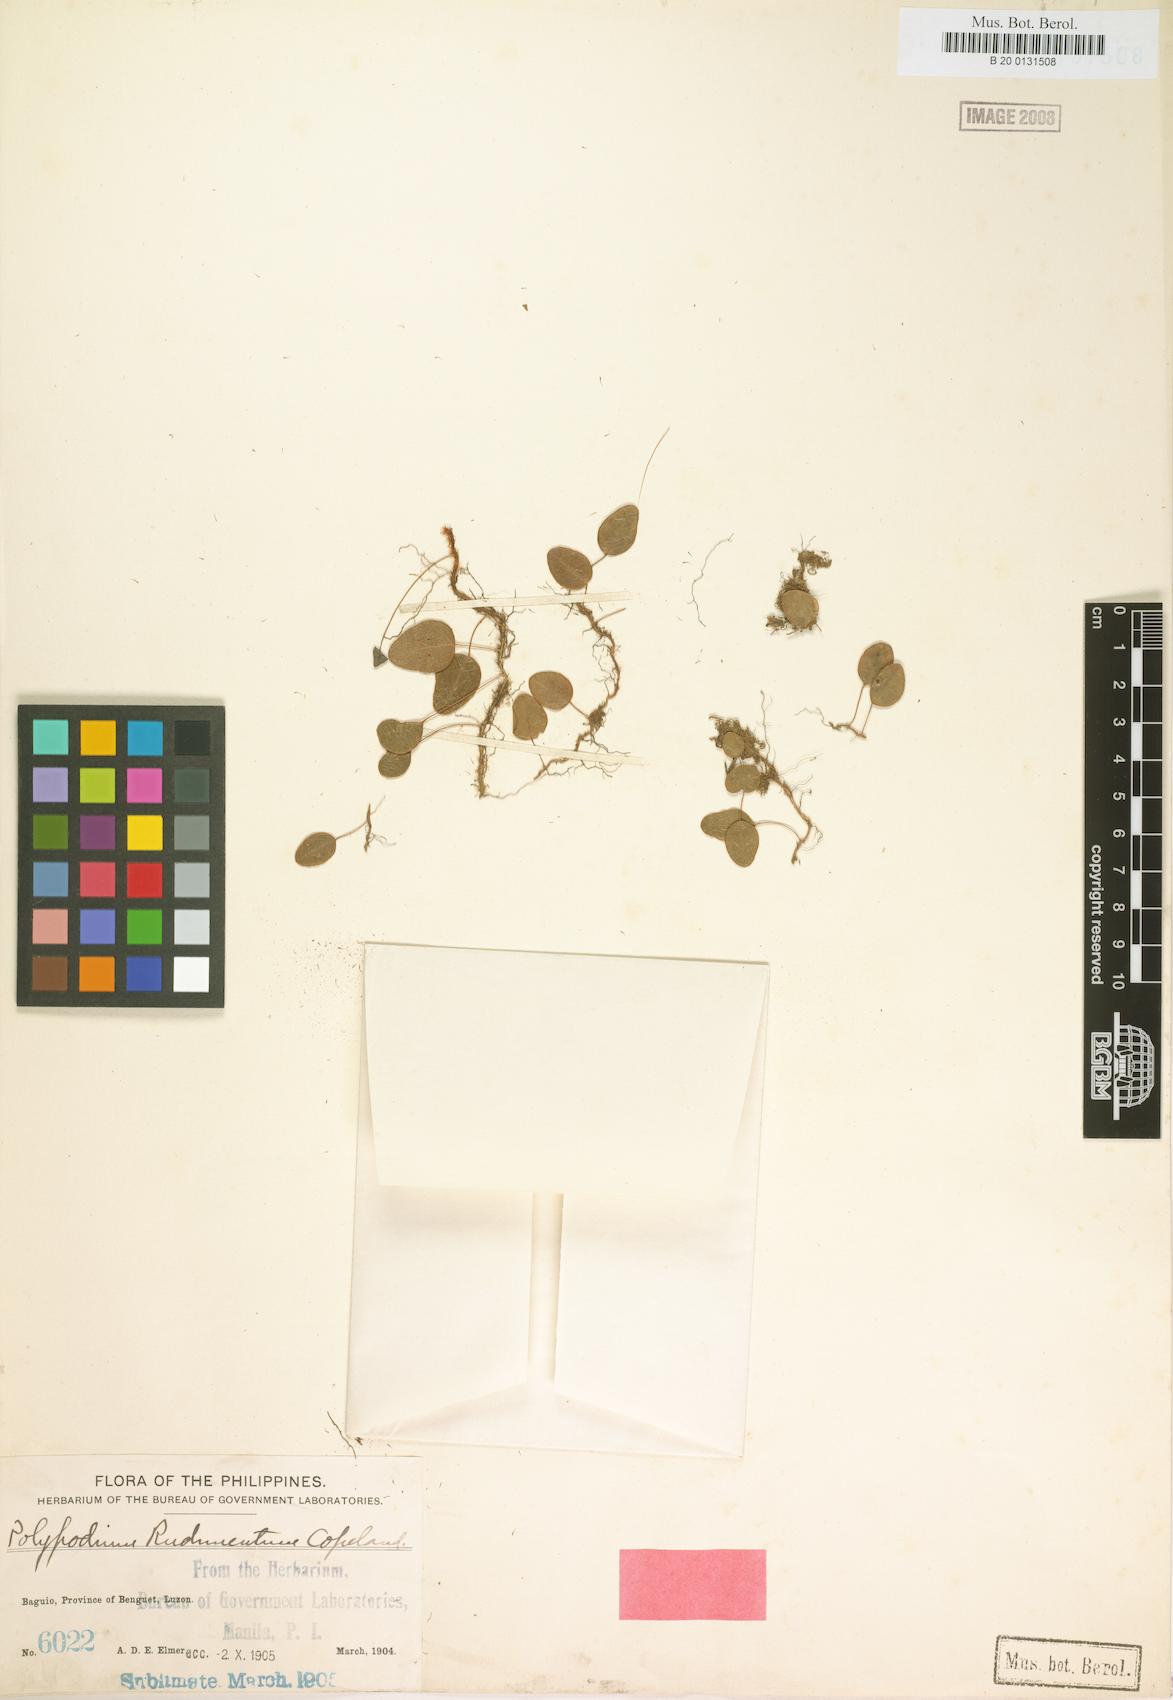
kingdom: Plantae
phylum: Tracheophyta
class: Polypodiopsida
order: Polypodiales
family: Polypodiaceae
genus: Selliguea
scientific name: Selliguea oodes
